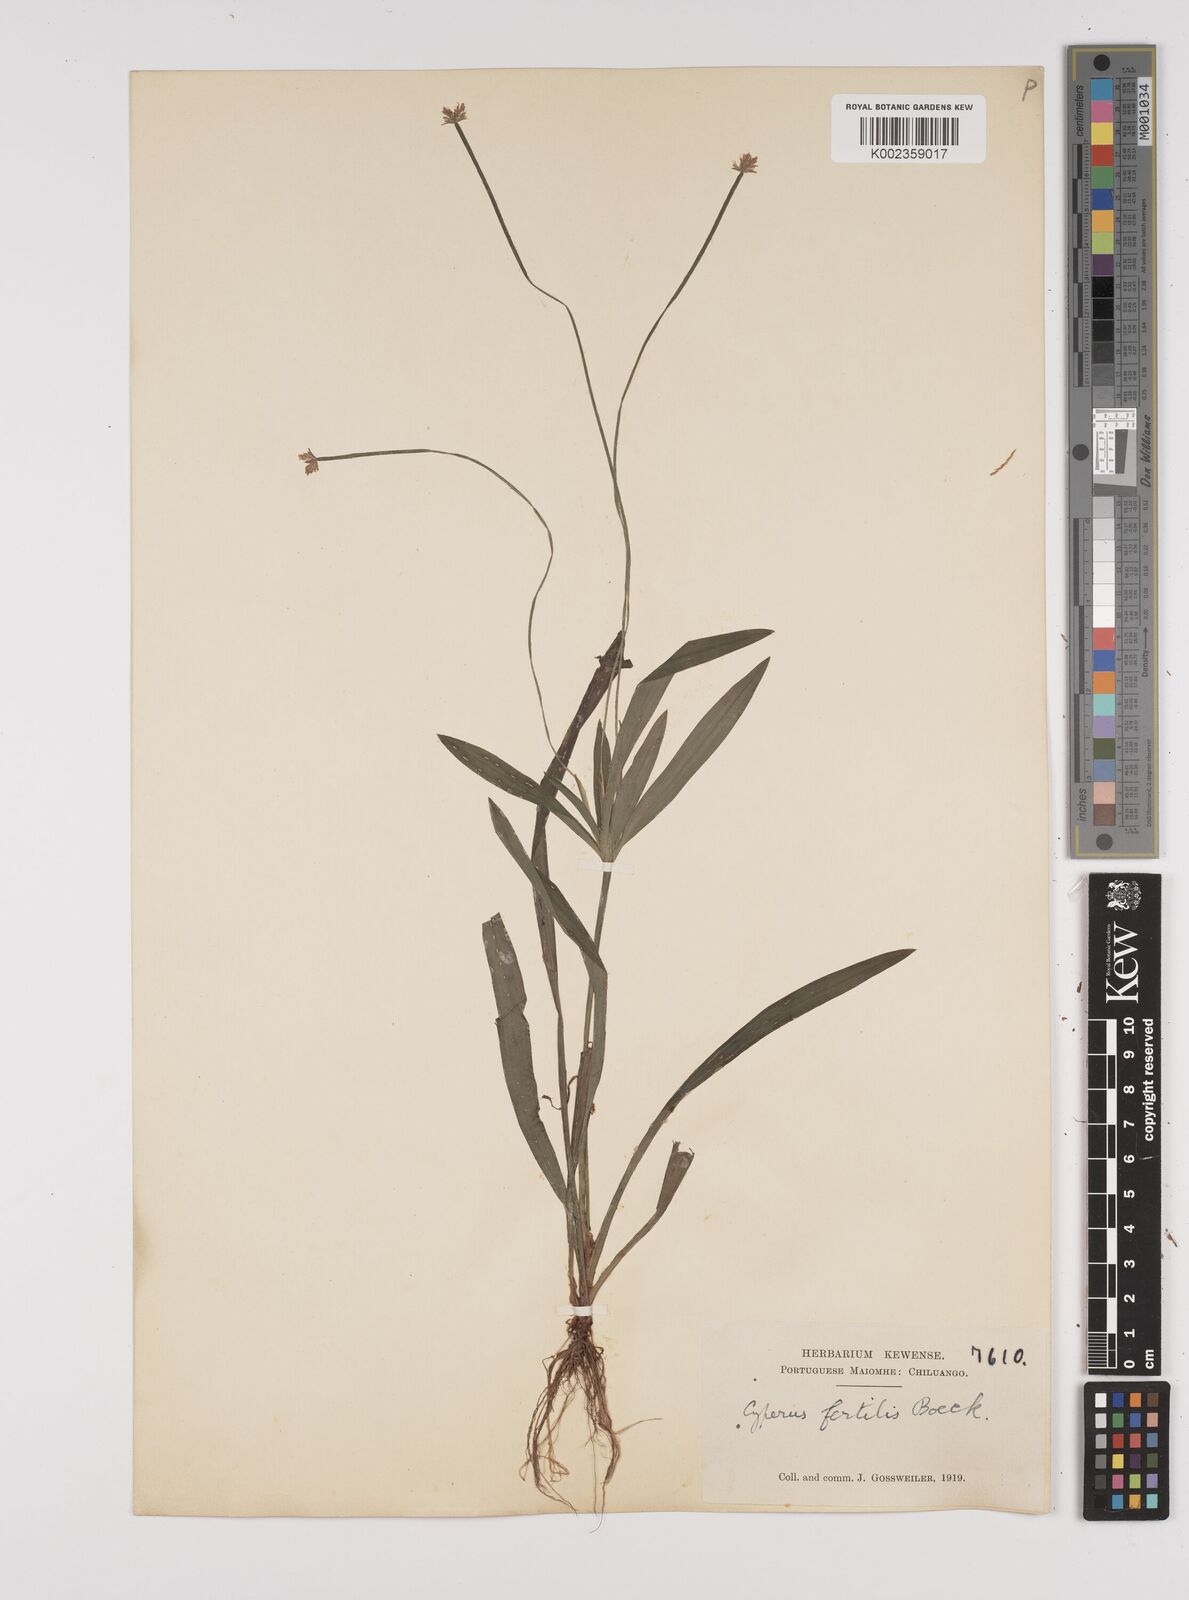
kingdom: Plantae
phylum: Tracheophyta
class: Liliopsida
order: Poales
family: Cyperaceae
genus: Cyperus
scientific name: Cyperus fertilis
